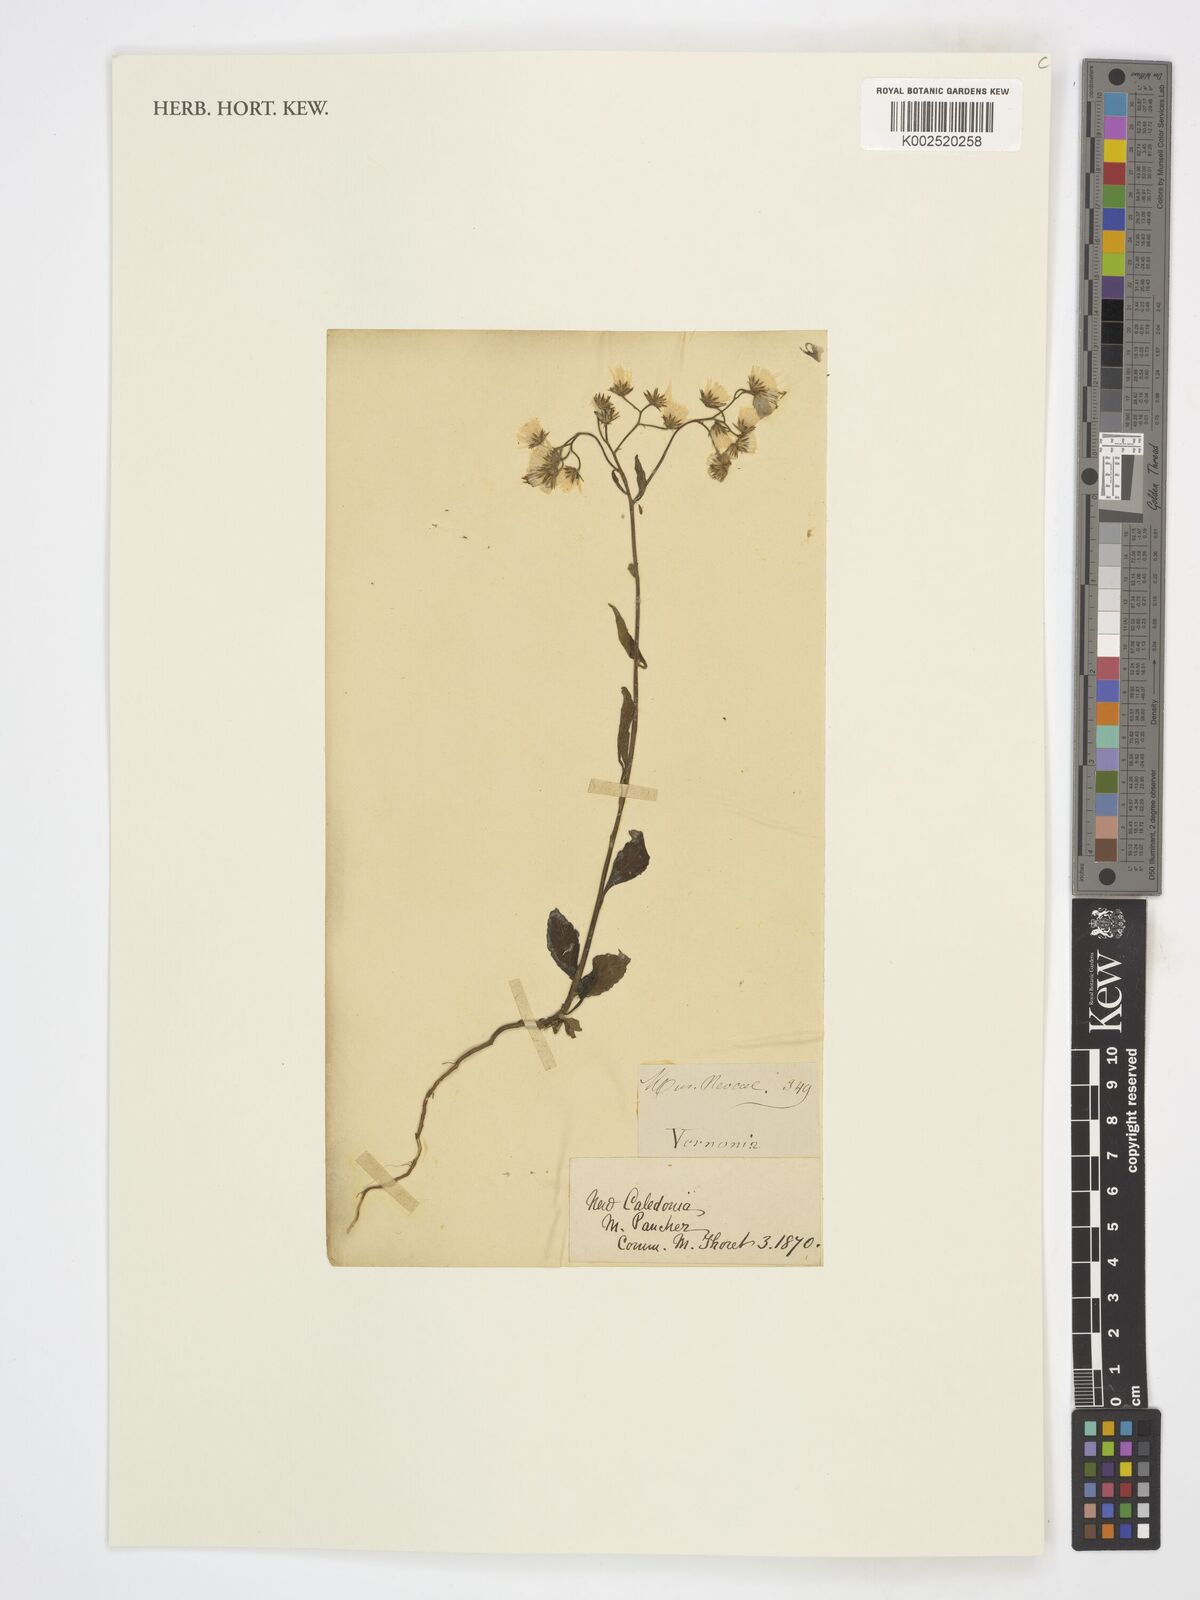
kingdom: Plantae
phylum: Tracheophyta
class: Magnoliopsida
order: Asterales
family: Asteraceae
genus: Vernonia
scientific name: Vernonia
